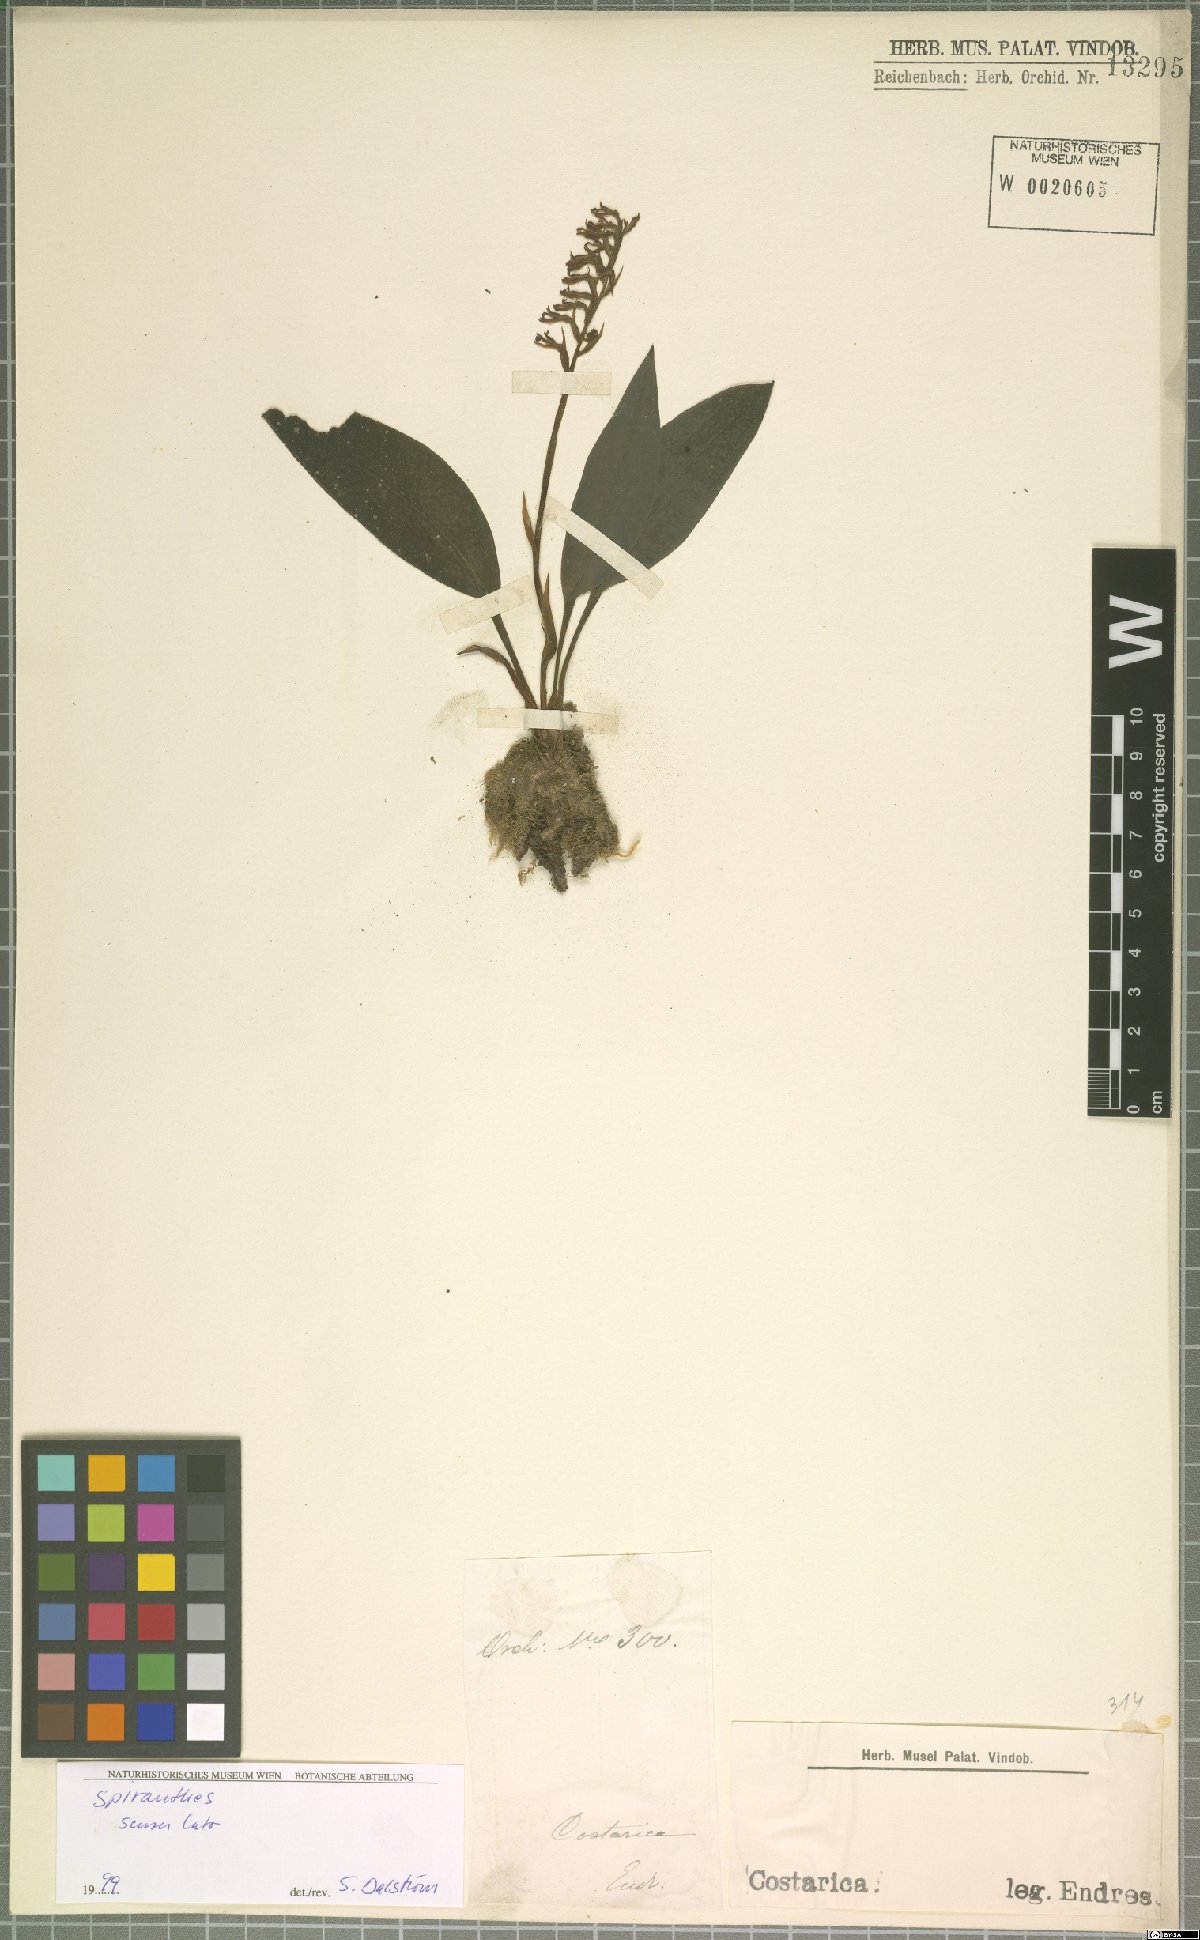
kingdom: Plantae
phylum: Tracheophyta
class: Liliopsida
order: Asparagales
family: Orchidaceae
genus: Cyclopogon
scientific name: Cyclopogon
